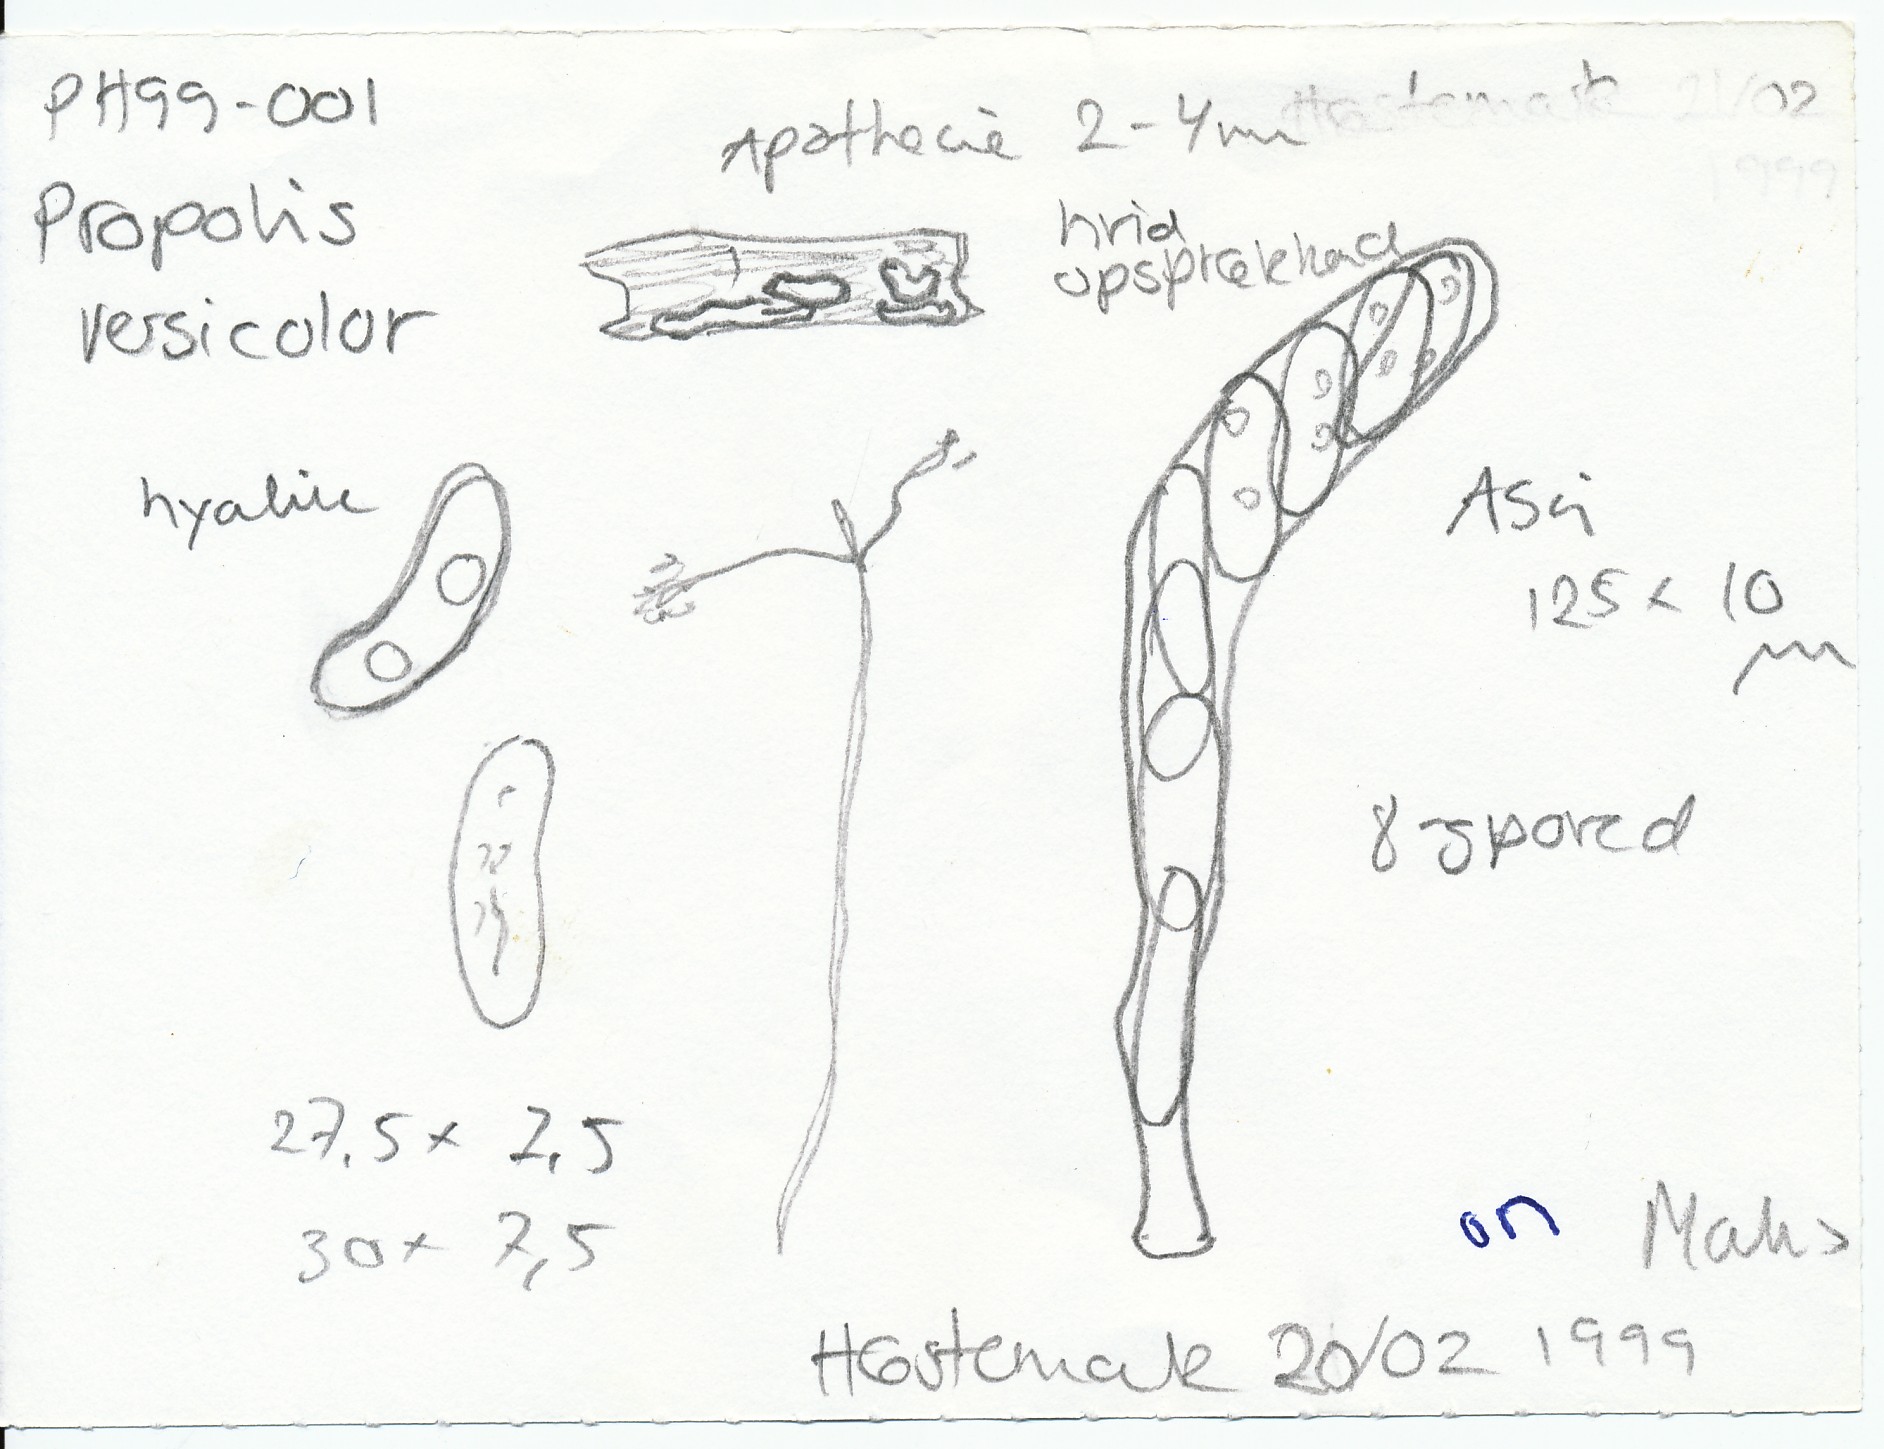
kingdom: Fungi
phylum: Ascomycota
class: Leotiomycetes
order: Chaetomellales
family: Marthamycetaceae
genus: Propolis
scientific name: Propolis farinosa
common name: almindelig vedsprængerskive
